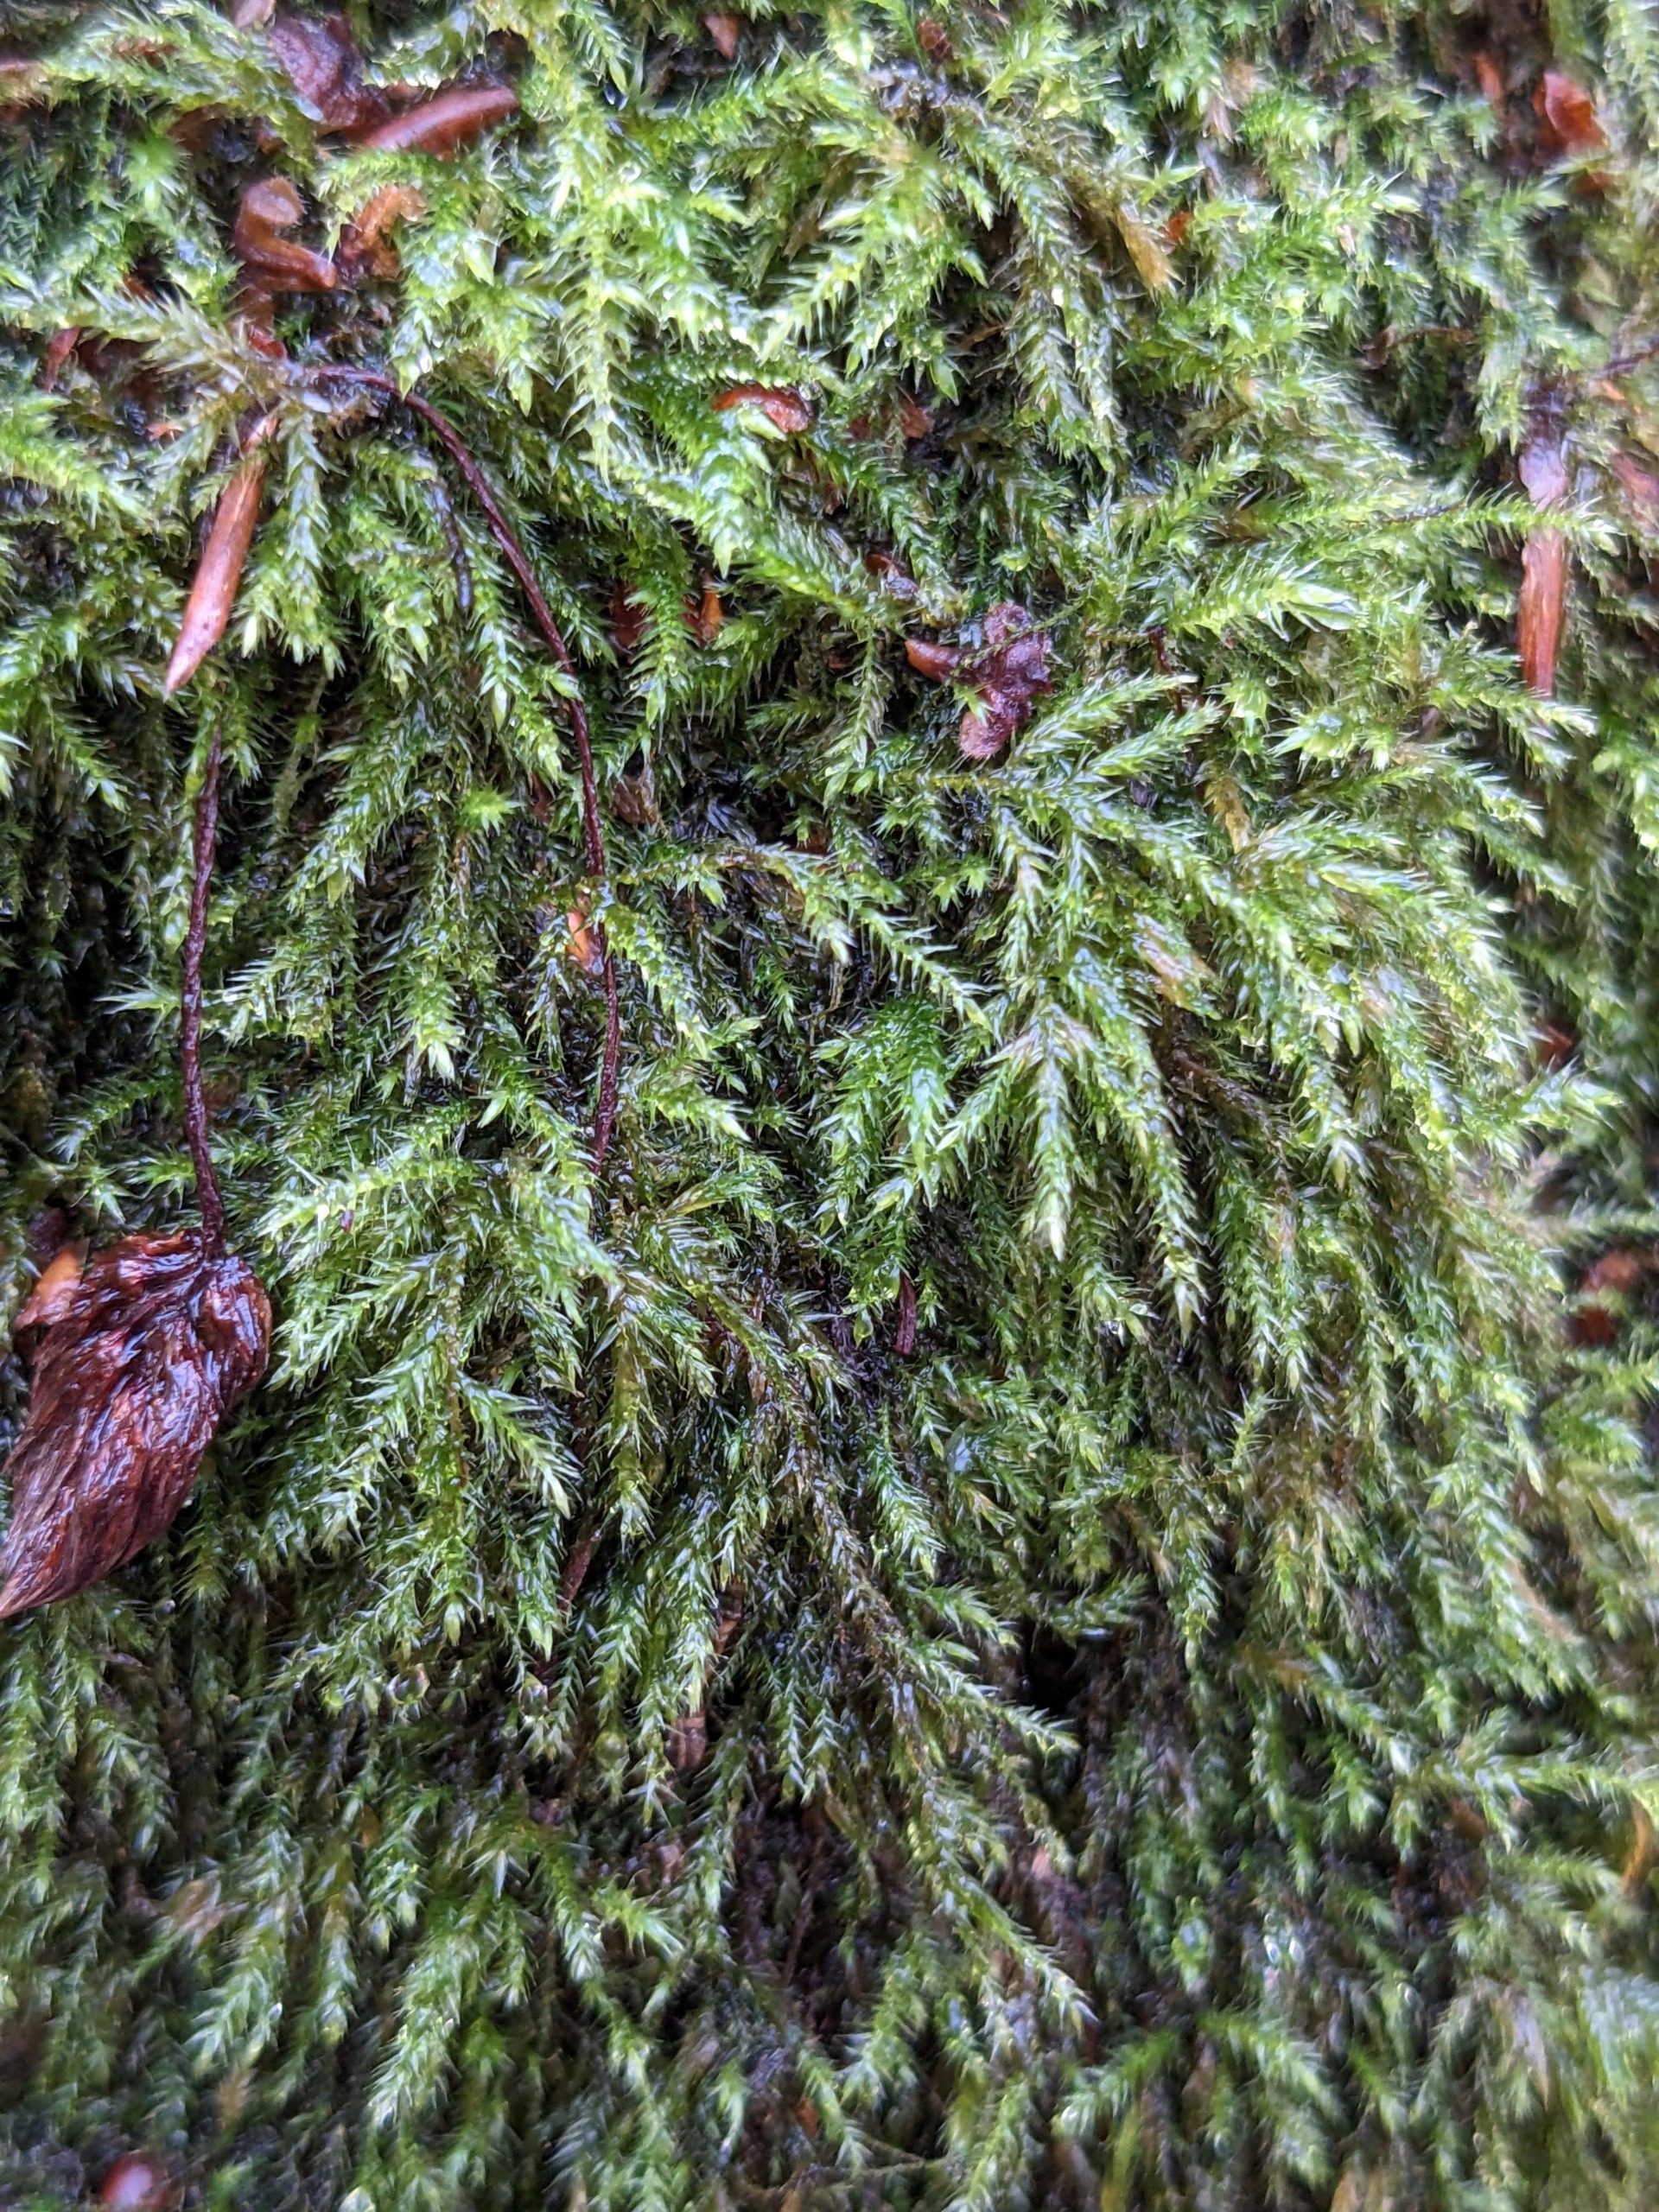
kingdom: Plantae
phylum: Bryophyta
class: Bryopsida
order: Hypnales
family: Lembophyllaceae
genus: Pseudisothecium
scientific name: Pseudisothecium myosuroides
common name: Slank stammemos
